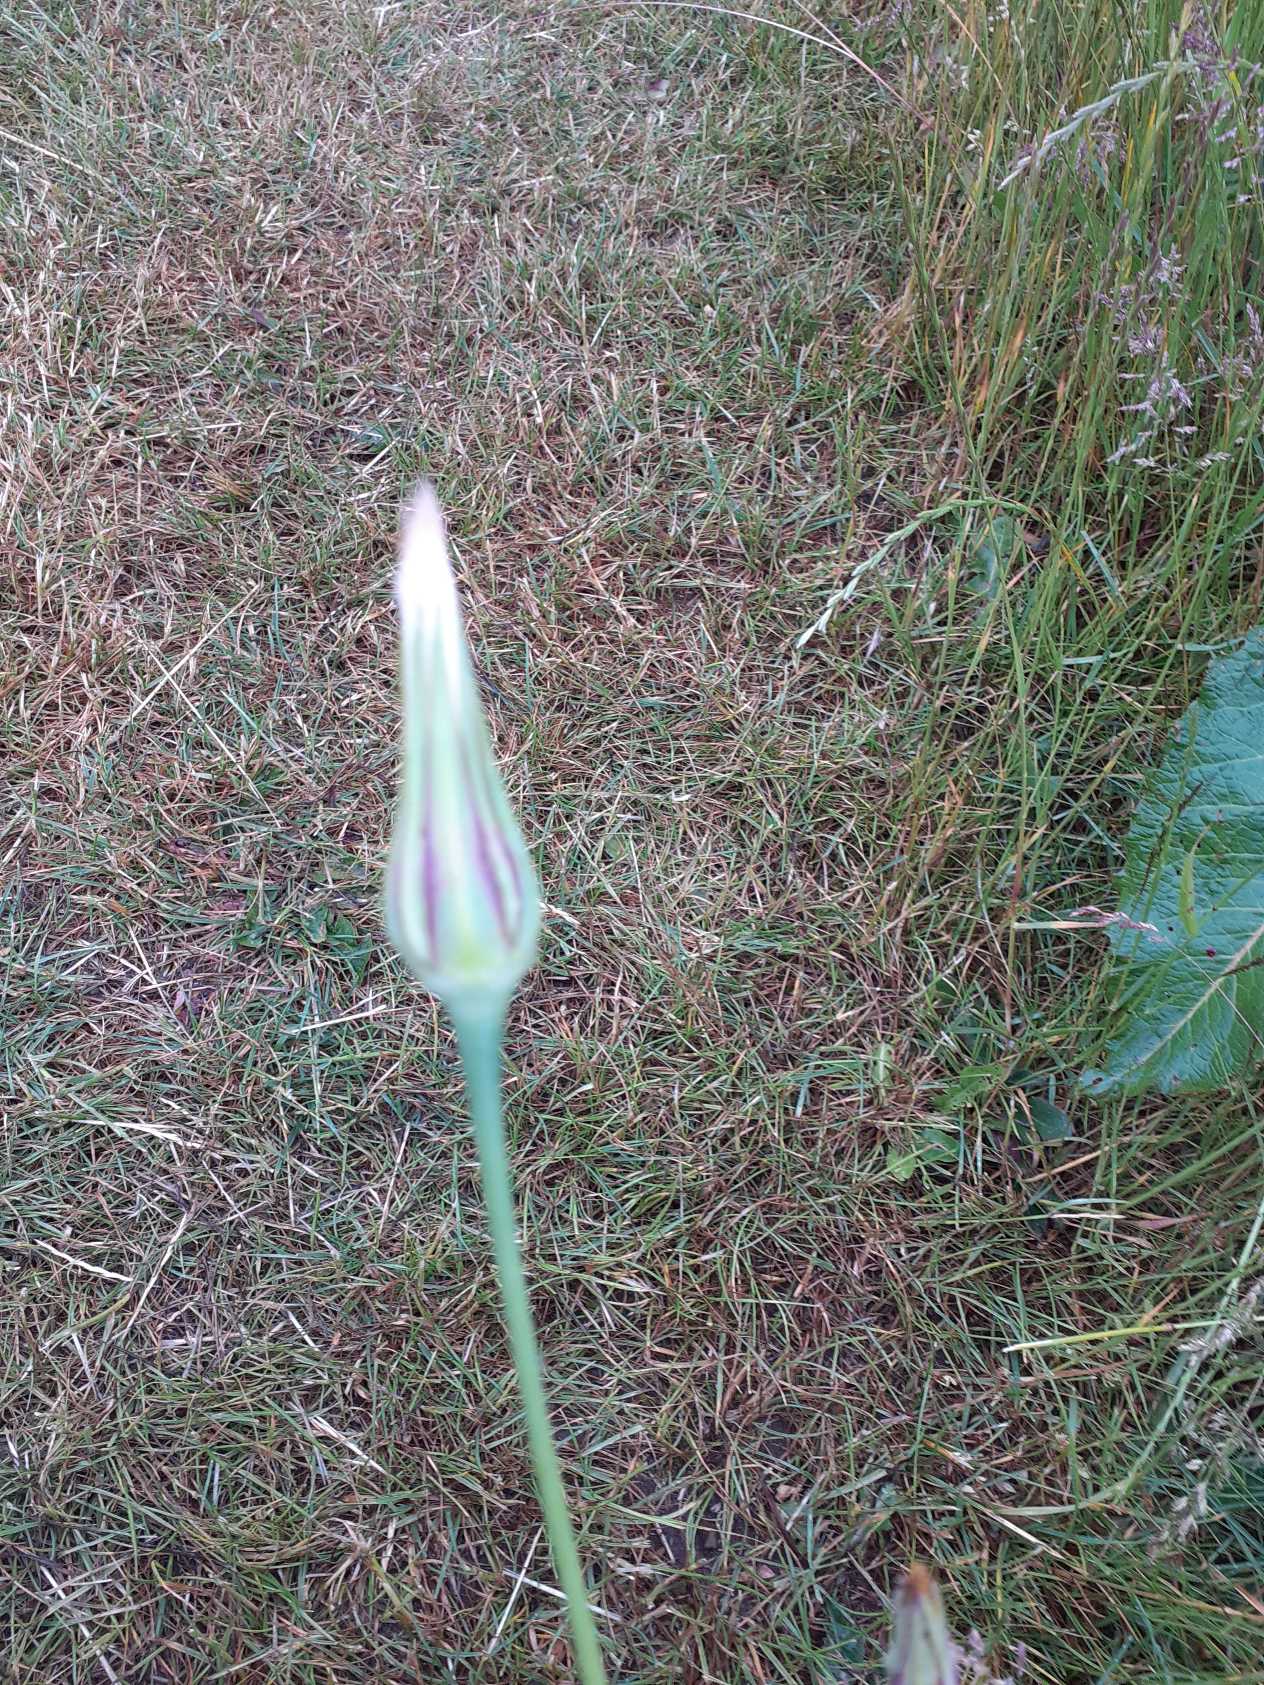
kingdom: Plantae
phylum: Tracheophyta
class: Magnoliopsida
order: Asterales
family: Asteraceae
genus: Tragopogon
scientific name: Tragopogon pratensis
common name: Gedeskæg
